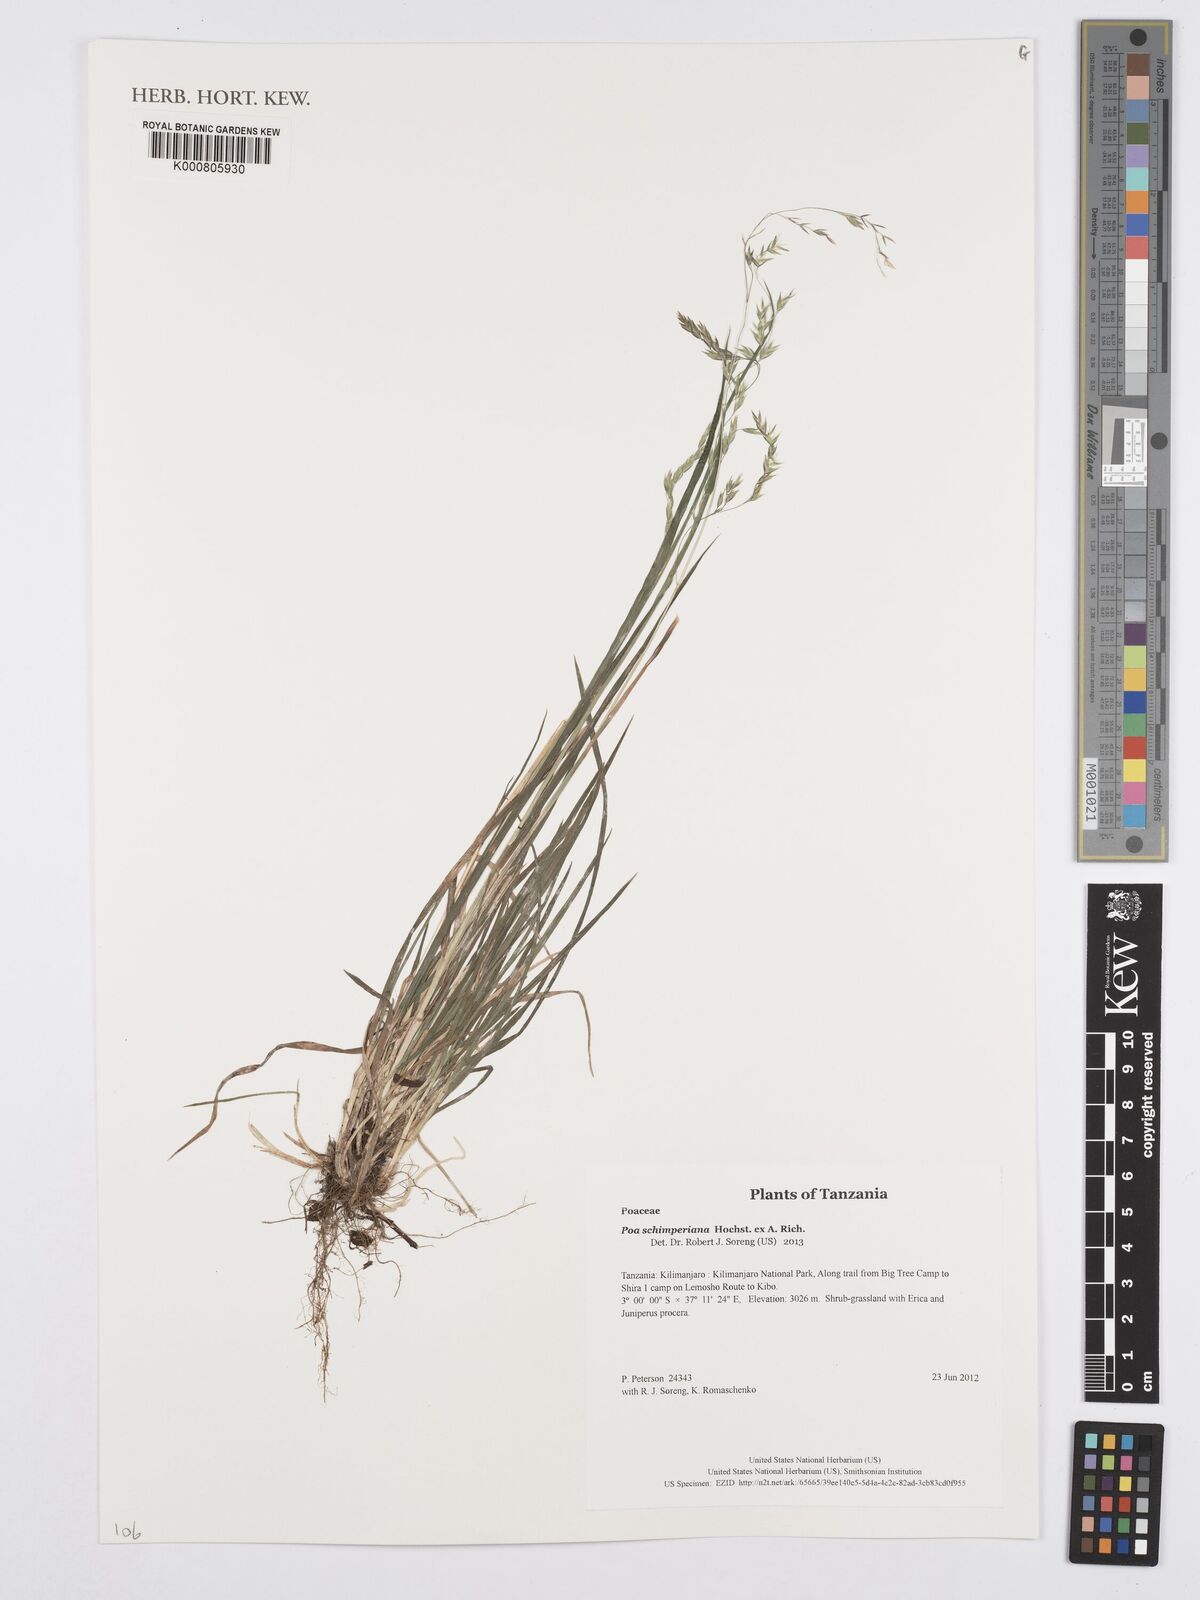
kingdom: Plantae
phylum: Tracheophyta
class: Liliopsida
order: Poales
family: Poaceae
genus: Poa
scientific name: Poa schimperiana
